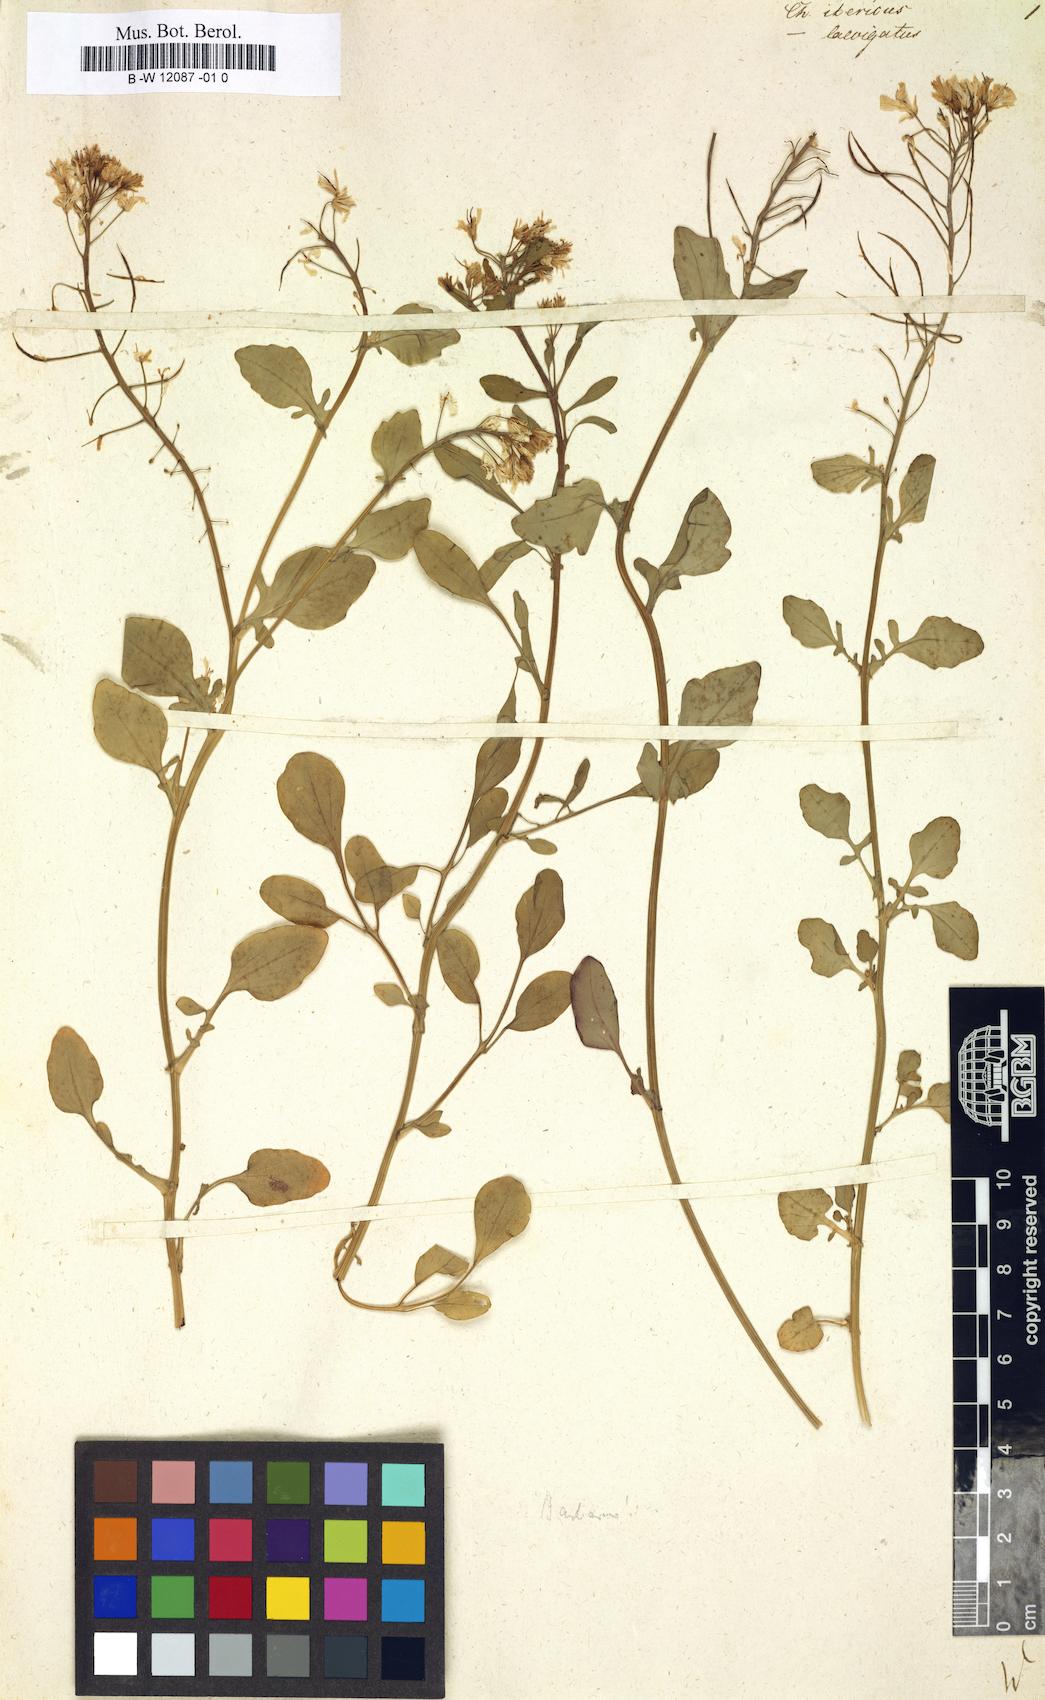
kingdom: Plantae
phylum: Tracheophyta
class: Magnoliopsida
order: Brassicales
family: Brassicaceae
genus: Erysimum
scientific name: Erysimum ibericum
